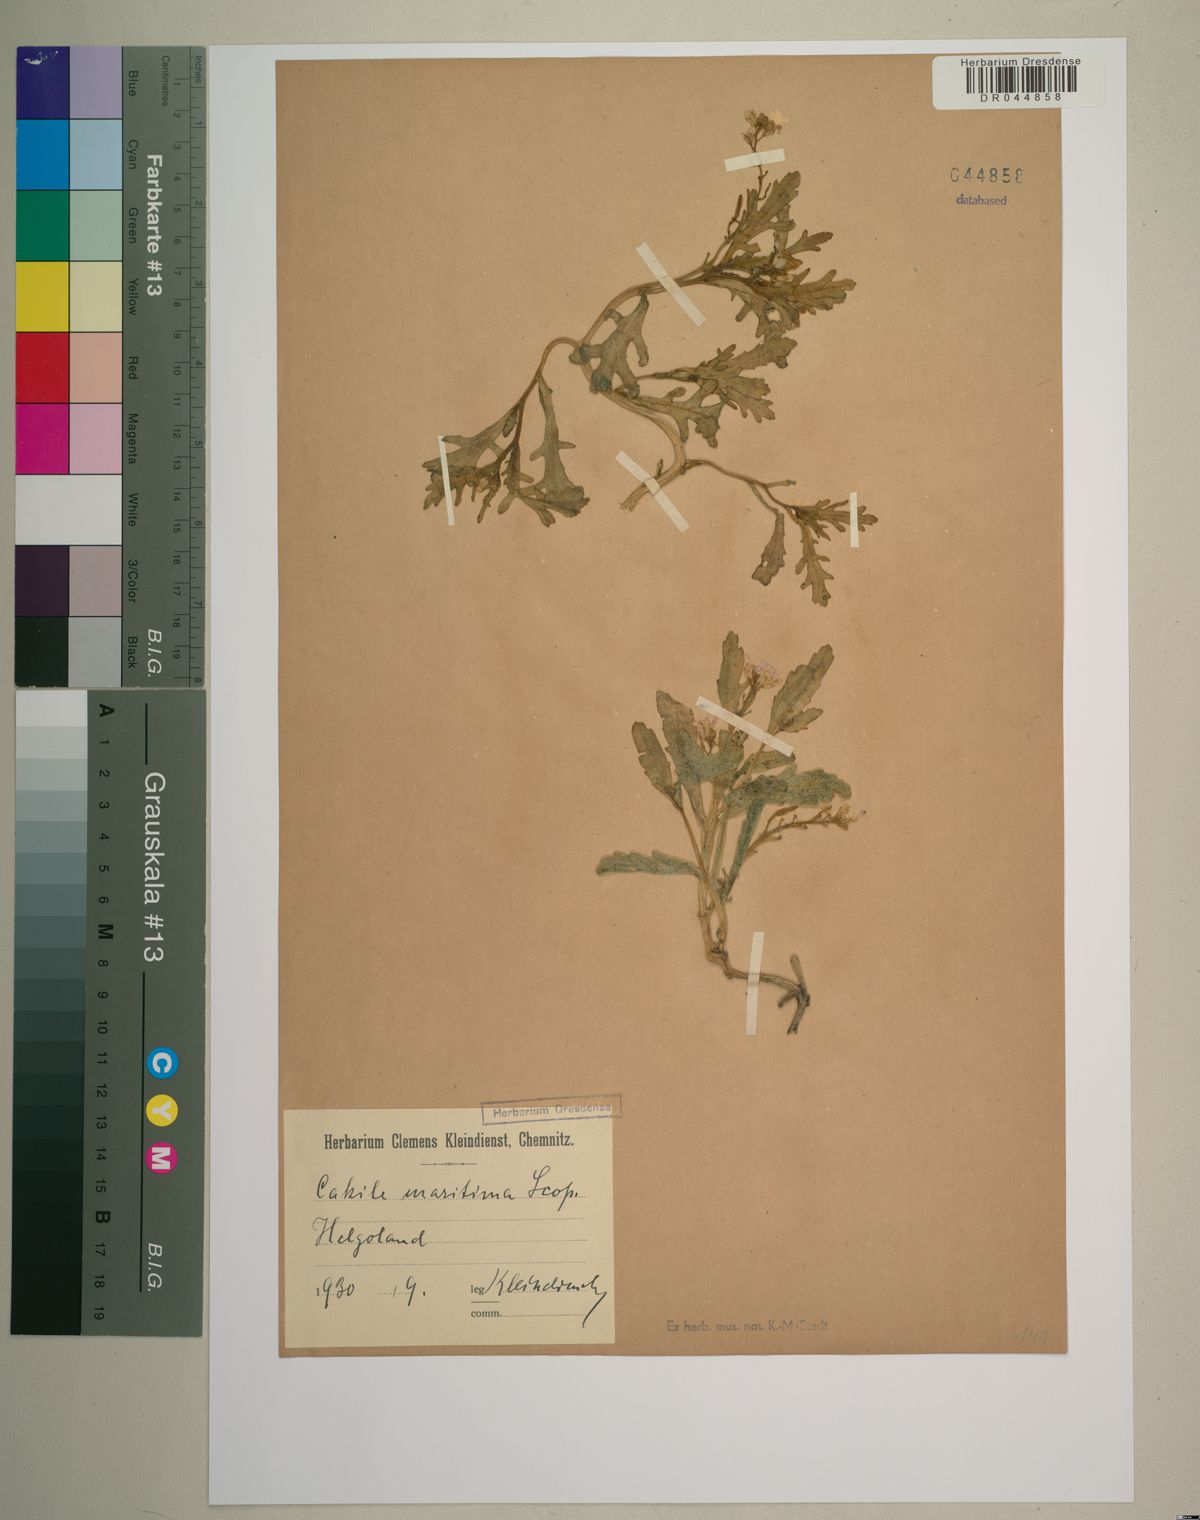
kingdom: Plantae
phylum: Tracheophyta
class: Magnoliopsida
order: Brassicales
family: Brassicaceae
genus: Cakile
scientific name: Cakile maritima
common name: Sea rocket
